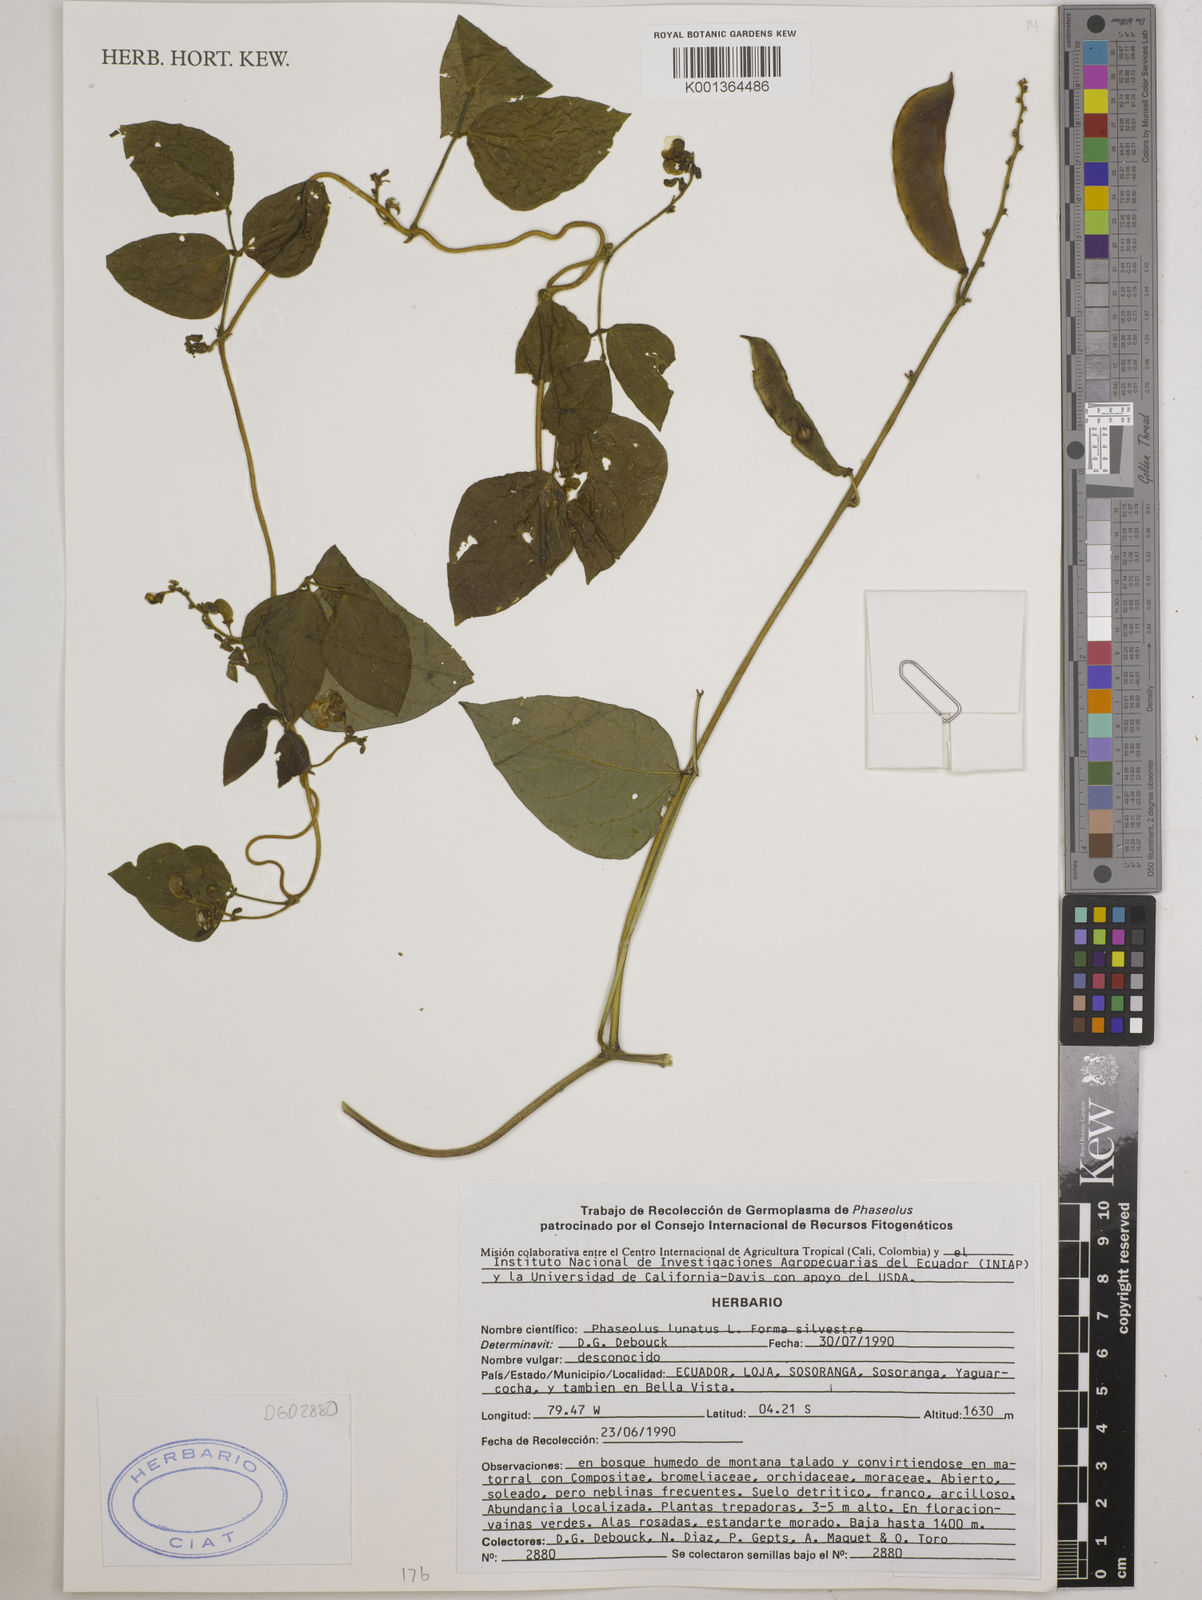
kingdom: Plantae
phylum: Tracheophyta
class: Magnoliopsida
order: Fabales
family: Fabaceae
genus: Phaseolus
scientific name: Phaseolus lunatus
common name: Sieva bean
